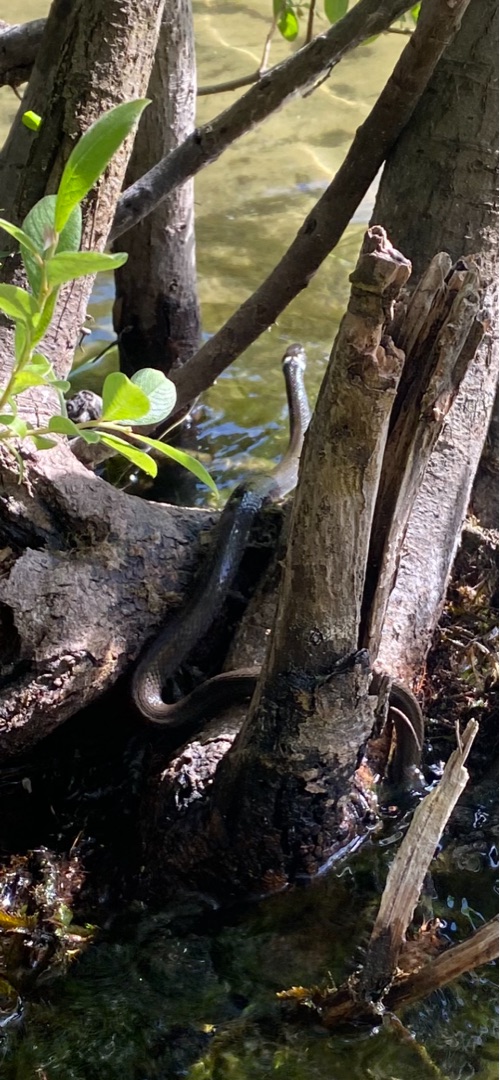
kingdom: Animalia
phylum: Chordata
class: Squamata
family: Colubridae
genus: Natrix
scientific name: Natrix natrix
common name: Snog
